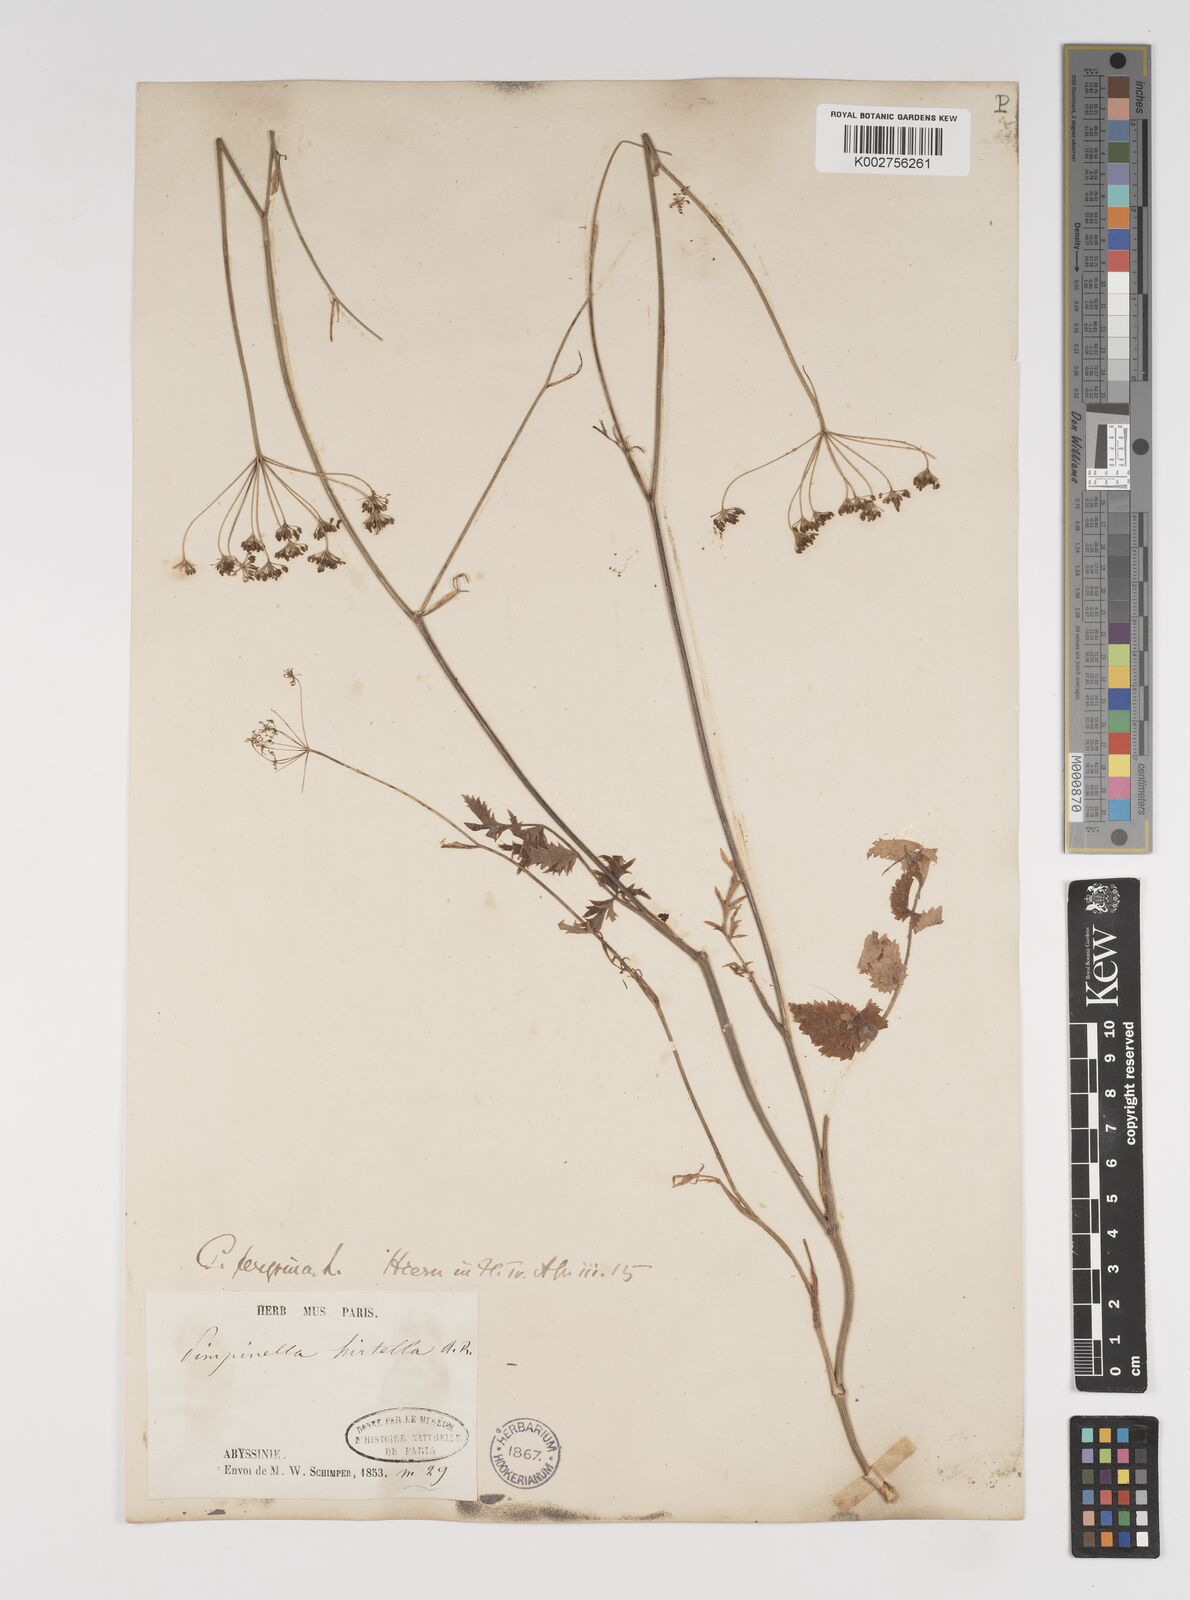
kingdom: Plantae
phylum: Tracheophyta
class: Magnoliopsida
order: Apiales
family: Apiaceae
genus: Pimpinella
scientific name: Pimpinella hirtella
